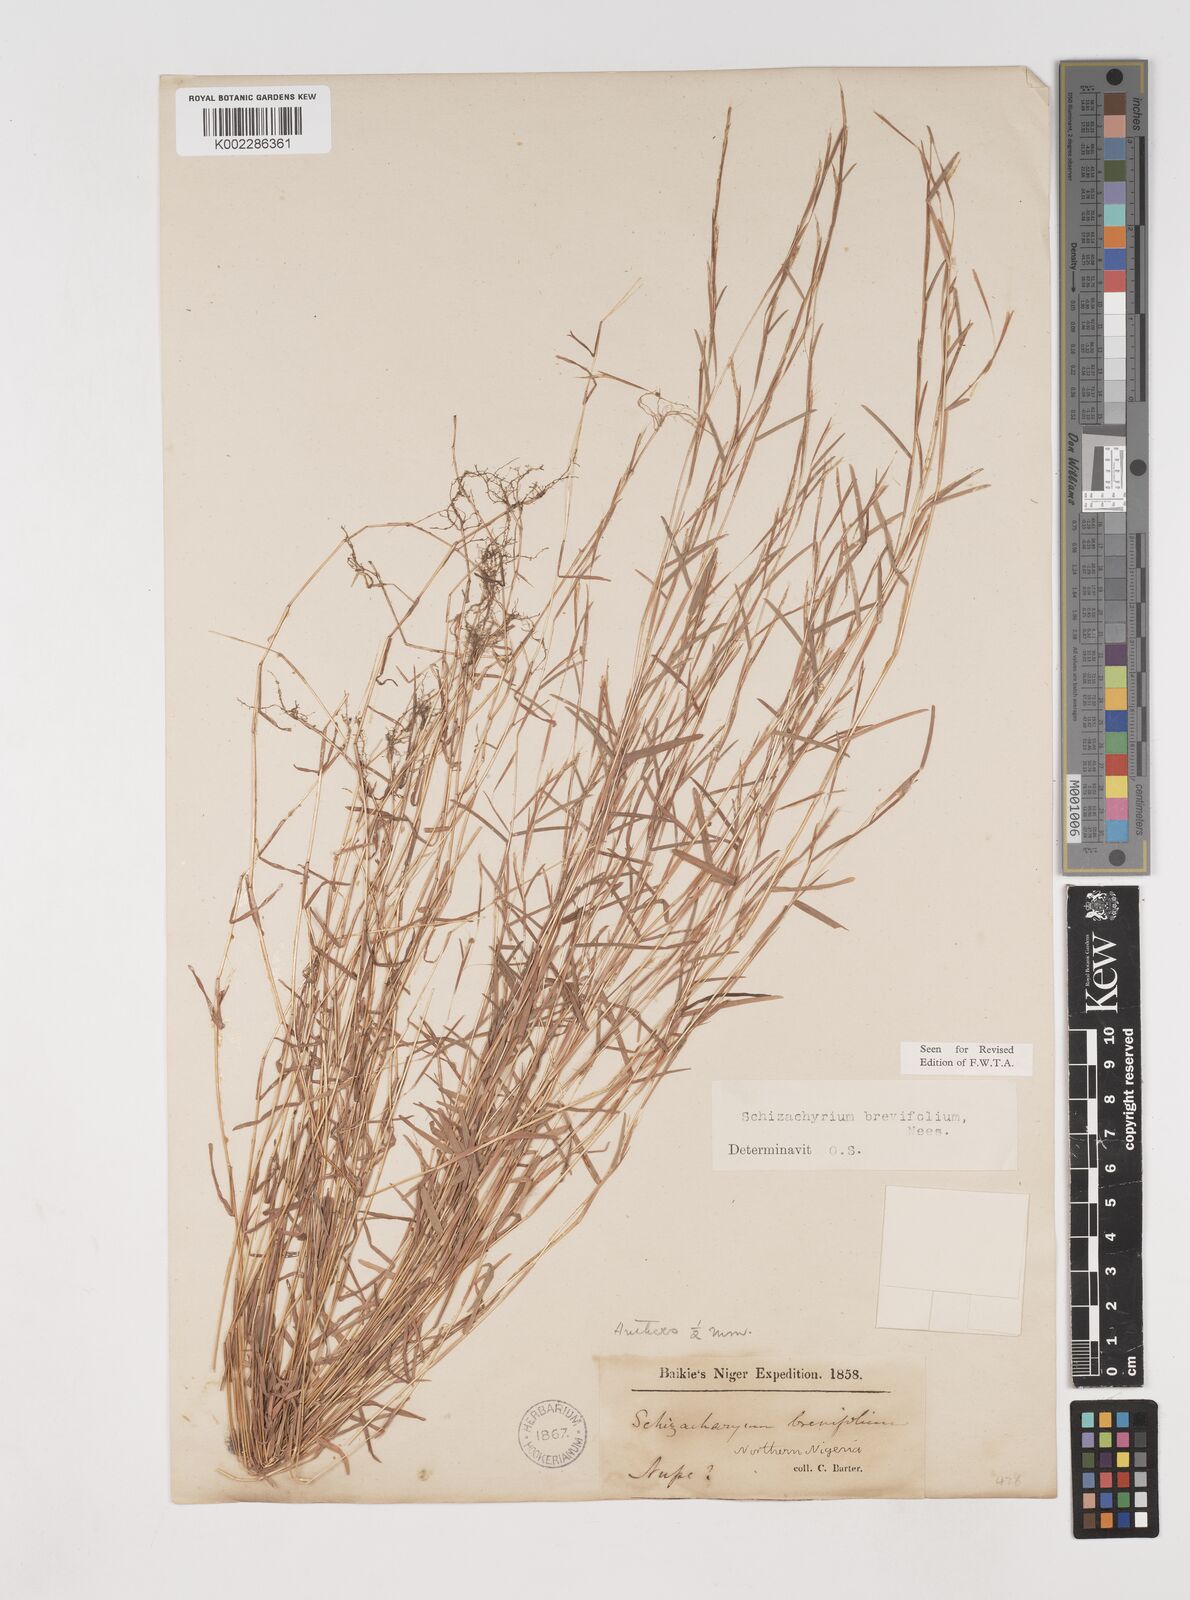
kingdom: Plantae
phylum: Tracheophyta
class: Liliopsida
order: Poales
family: Poaceae
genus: Schizachyrium
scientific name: Schizachyrium brevifolium
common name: Serillo dulce
